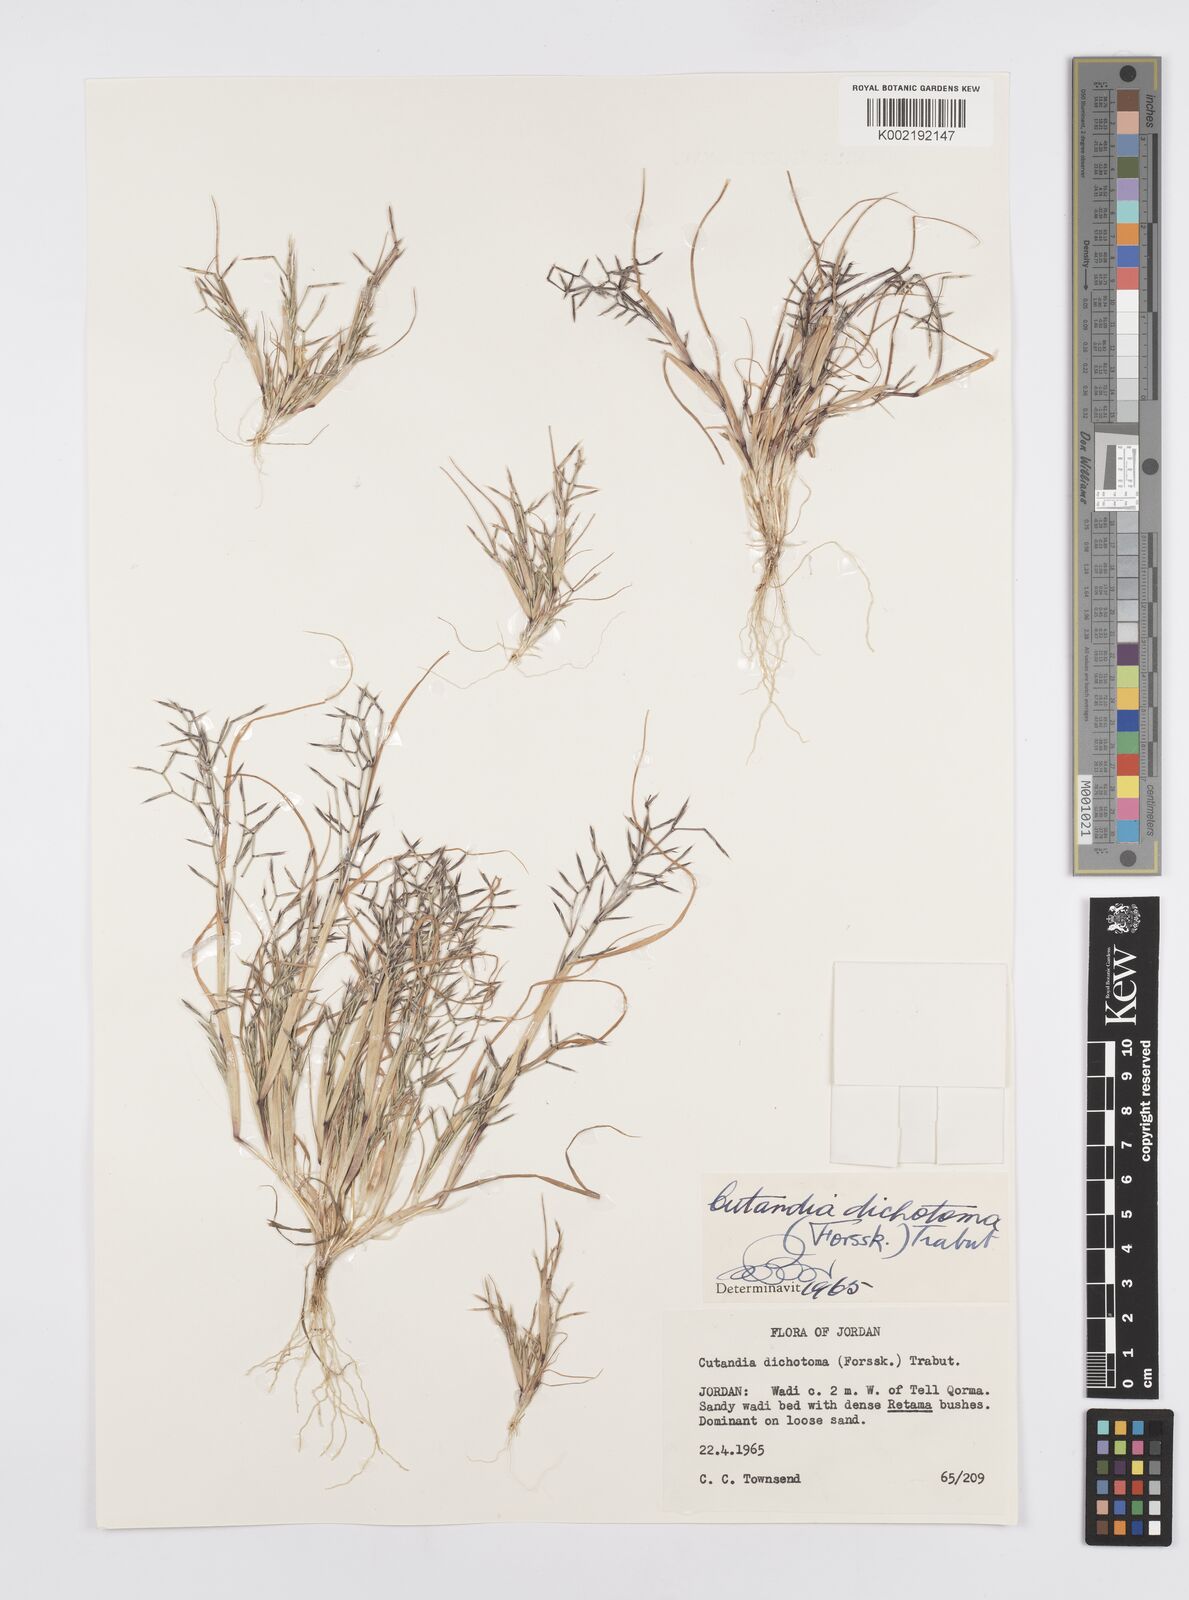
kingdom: Plantae
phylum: Tracheophyta
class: Liliopsida
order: Poales
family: Poaceae
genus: Cutandia
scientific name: Cutandia dichotoma
